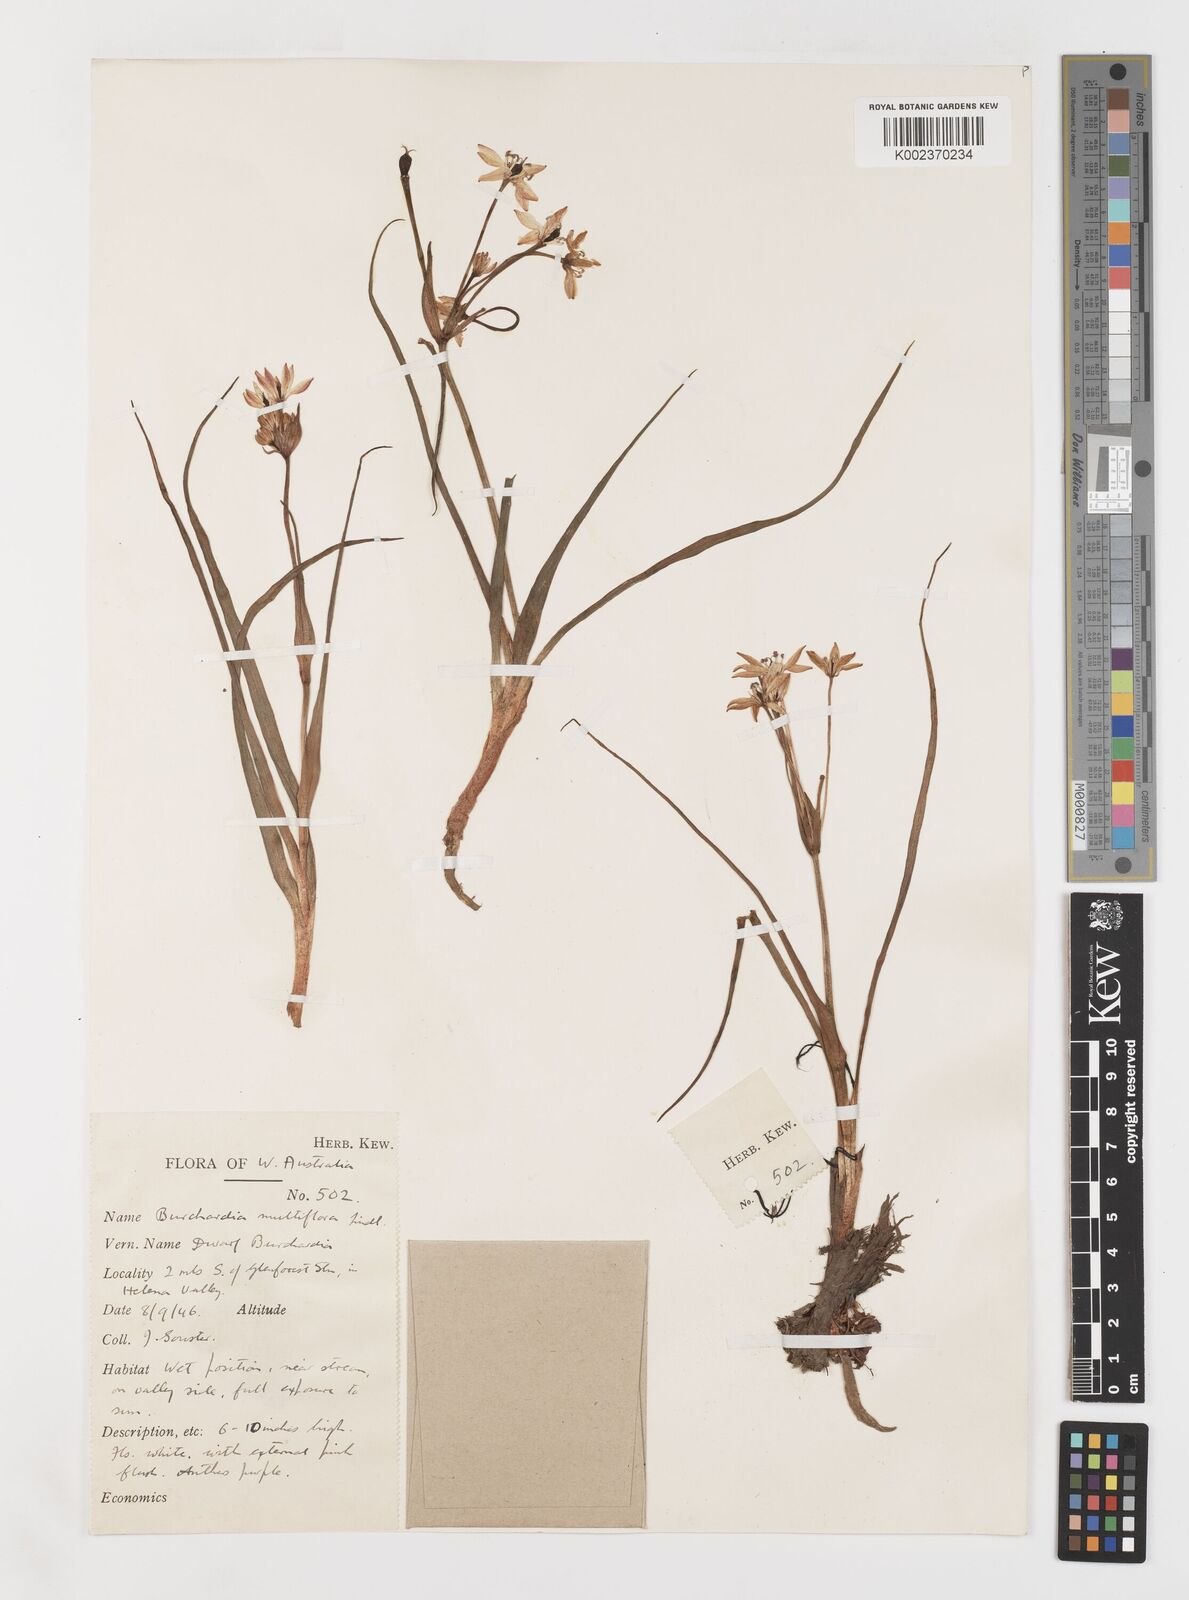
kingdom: Plantae
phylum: Tracheophyta
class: Liliopsida
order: Liliales
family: Colchicaceae
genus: Burchardia
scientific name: Burchardia multiflora
